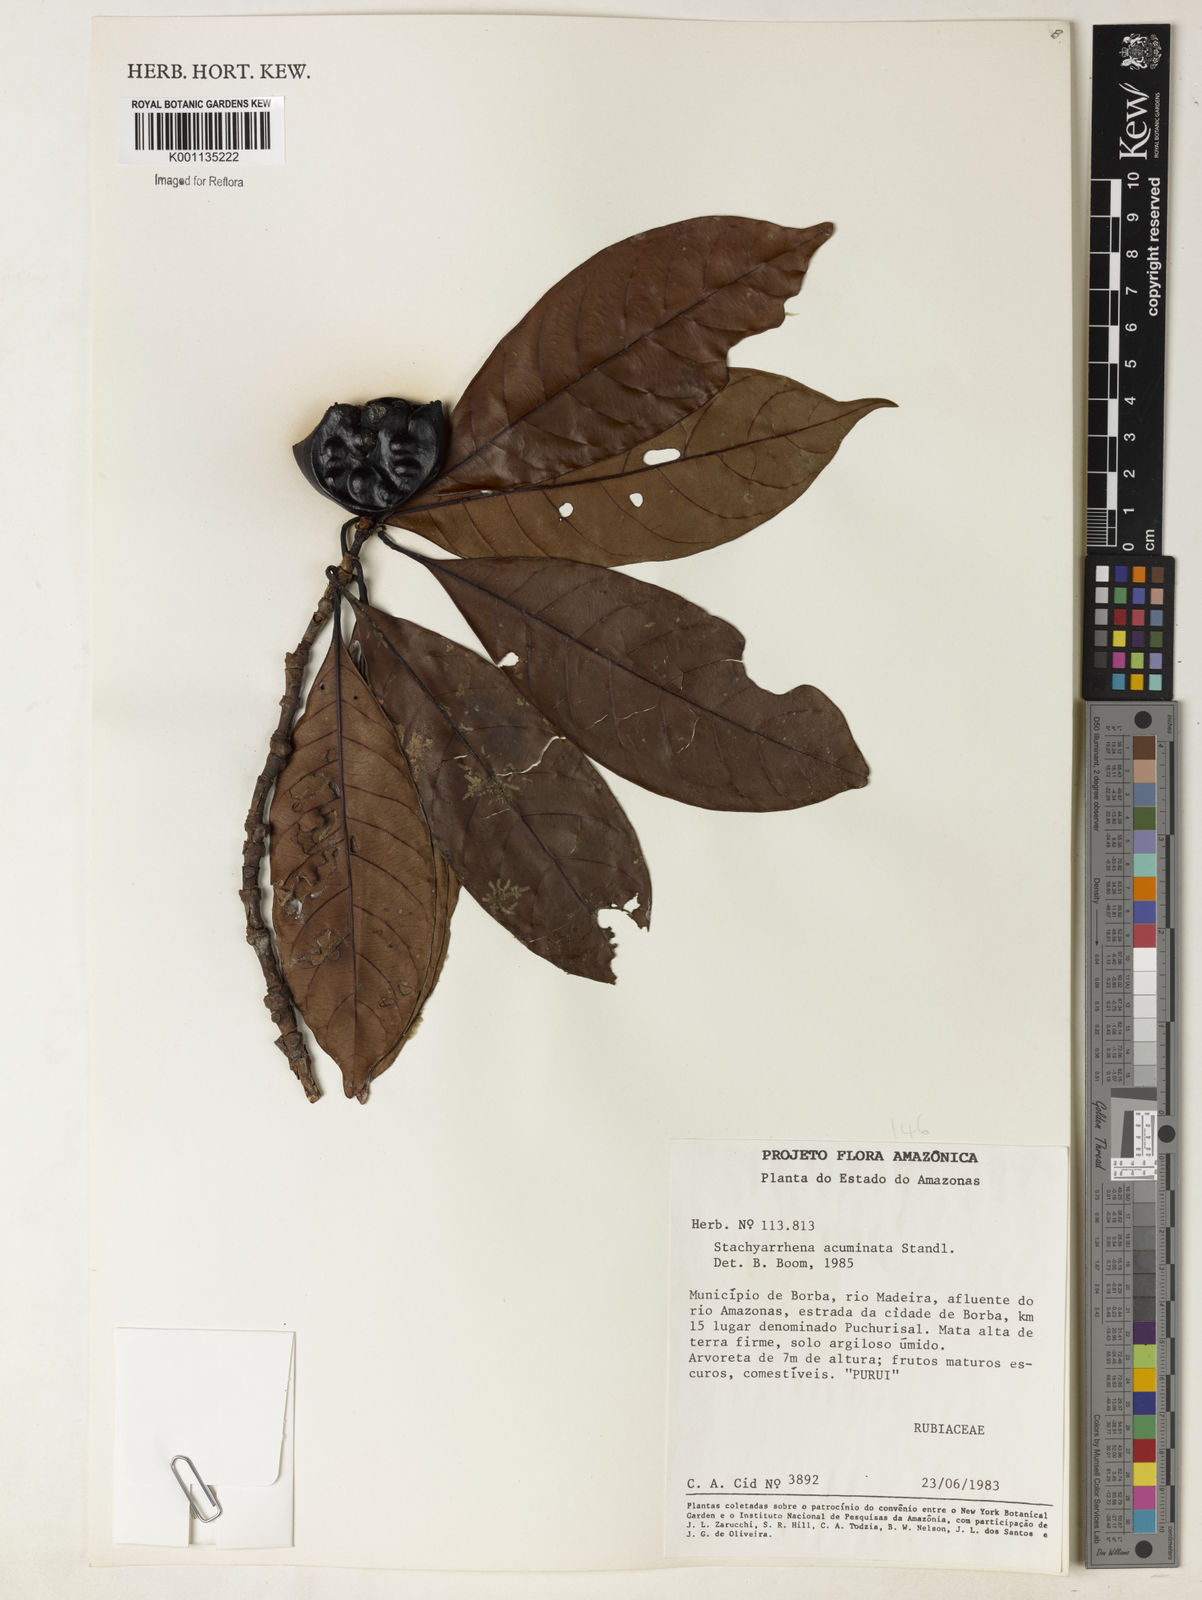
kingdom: Plantae
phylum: Tracheophyta
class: Magnoliopsida
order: Gentianales
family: Rubiaceae
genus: Stachyarrhena
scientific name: Stachyarrhena acuminata
